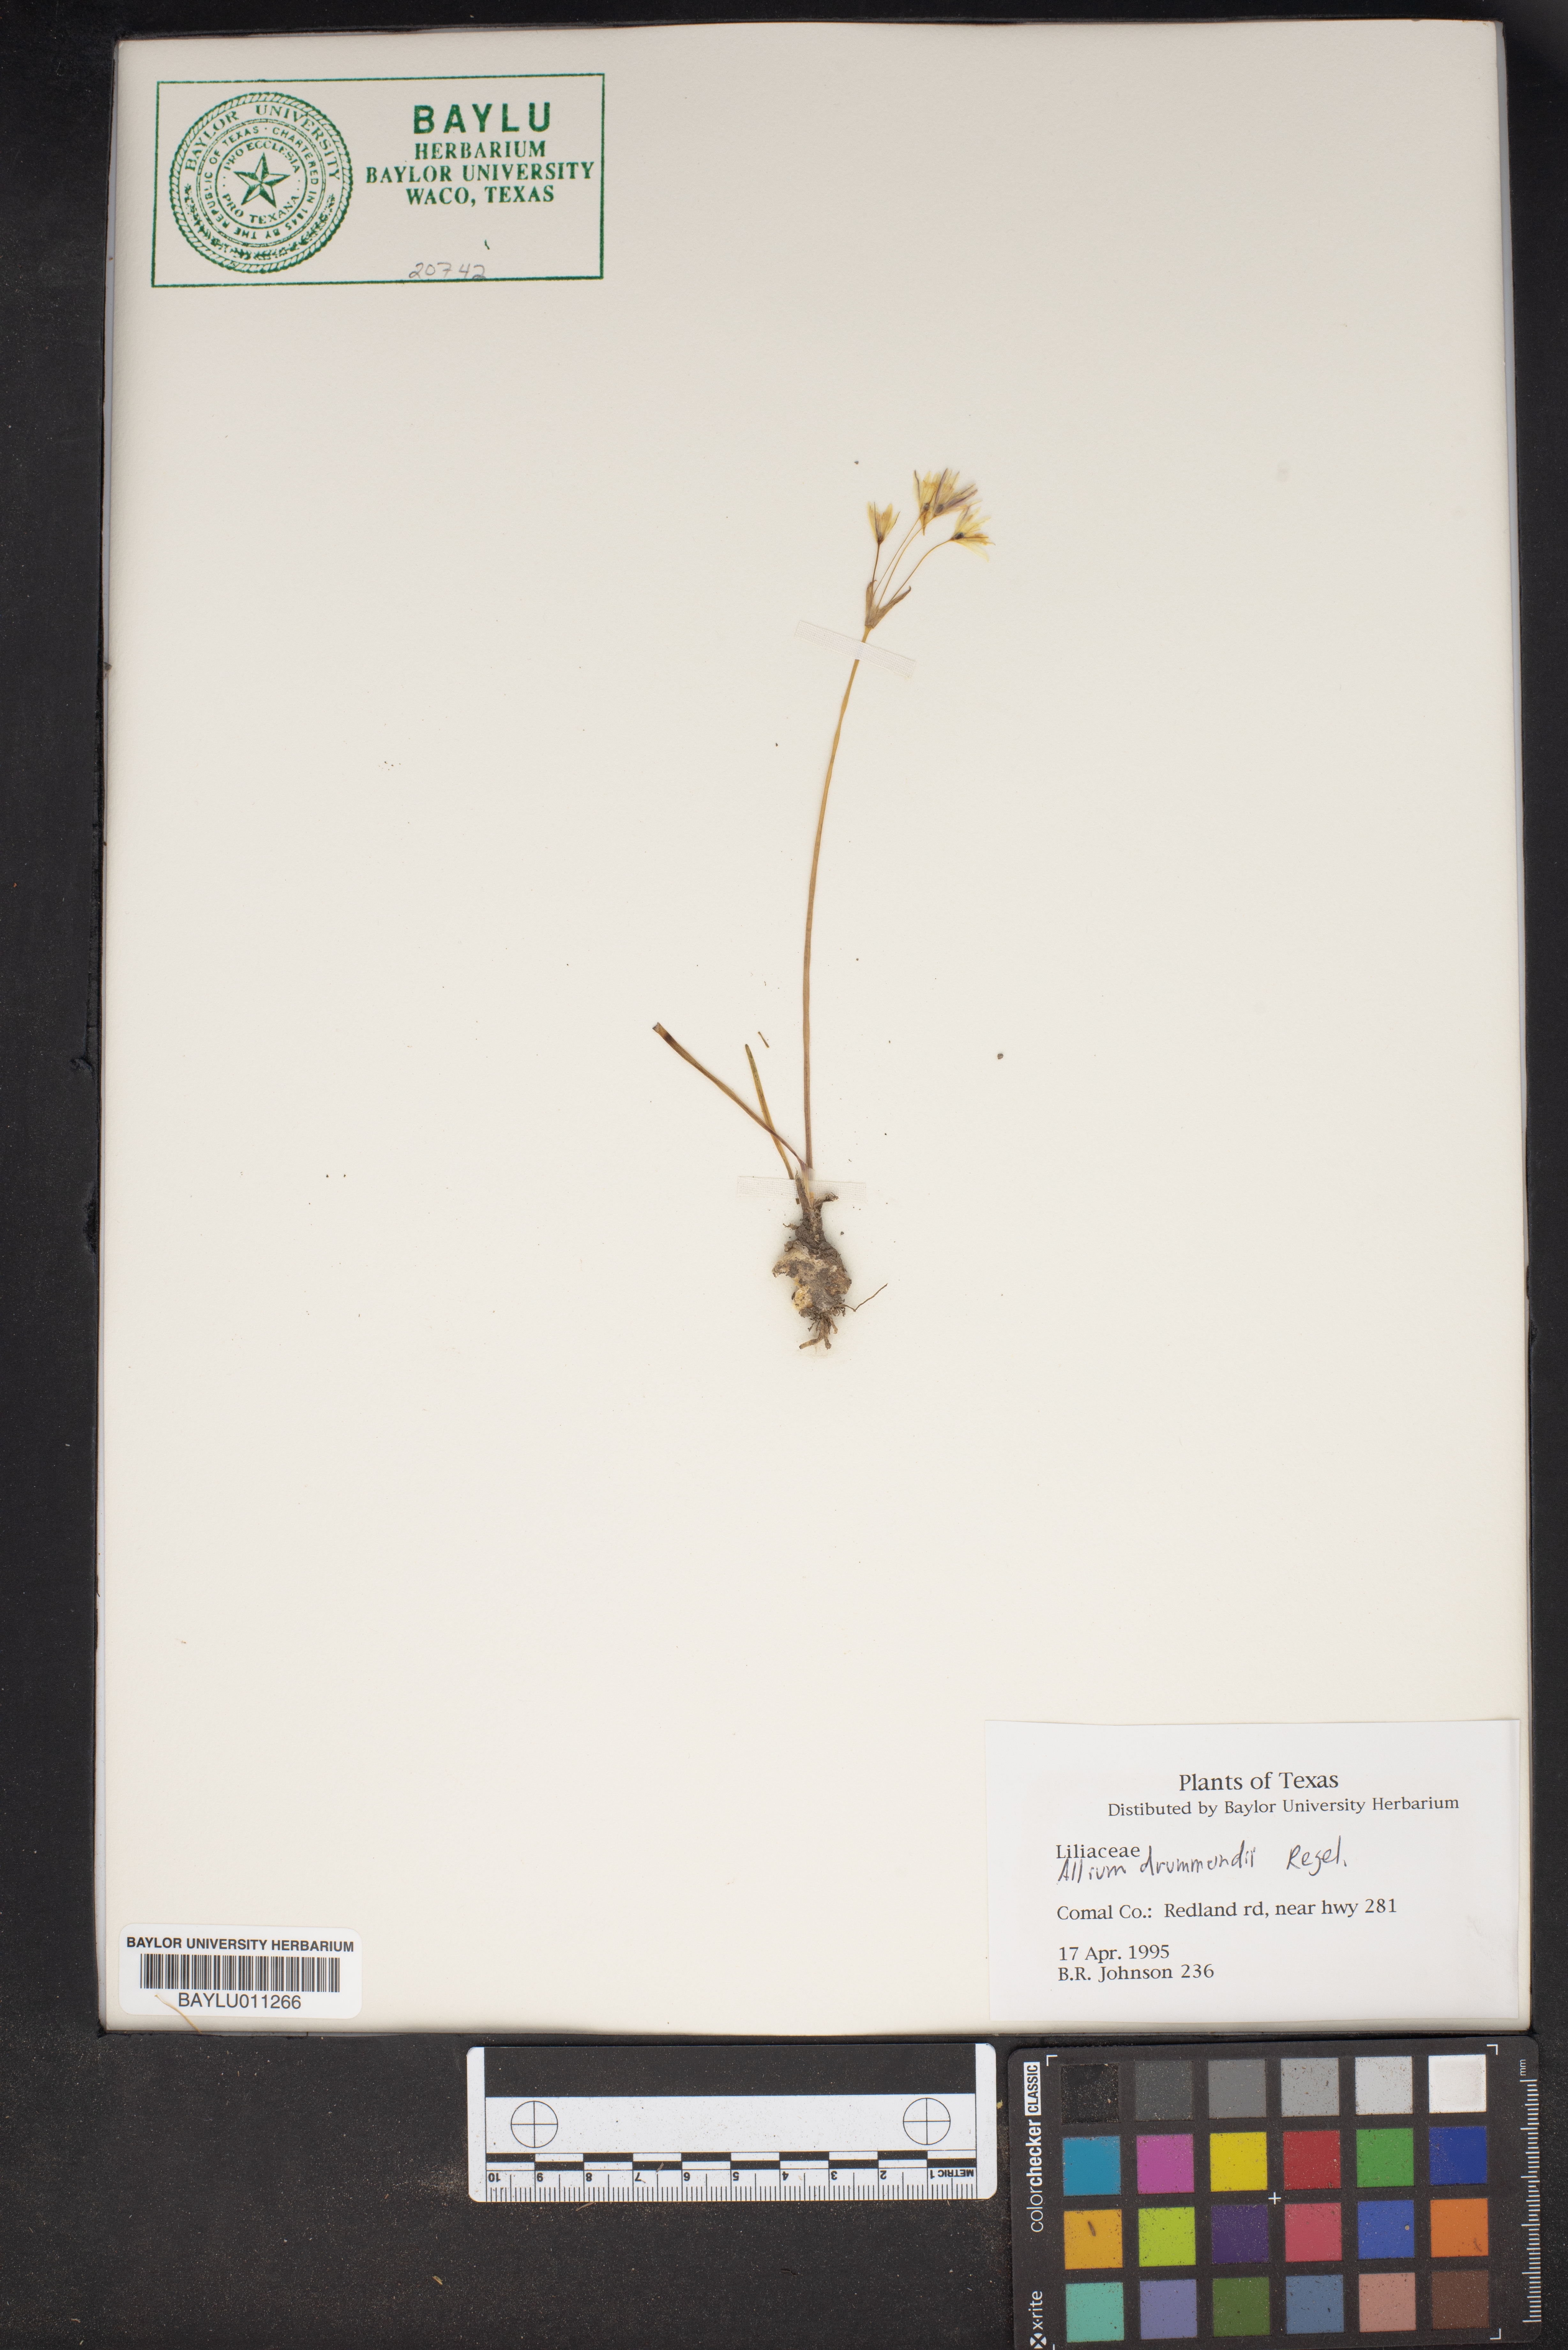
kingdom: Plantae
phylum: Tracheophyta
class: Liliopsida
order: Asparagales
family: Amaryllidaceae
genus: Allium
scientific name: Allium drummondii
